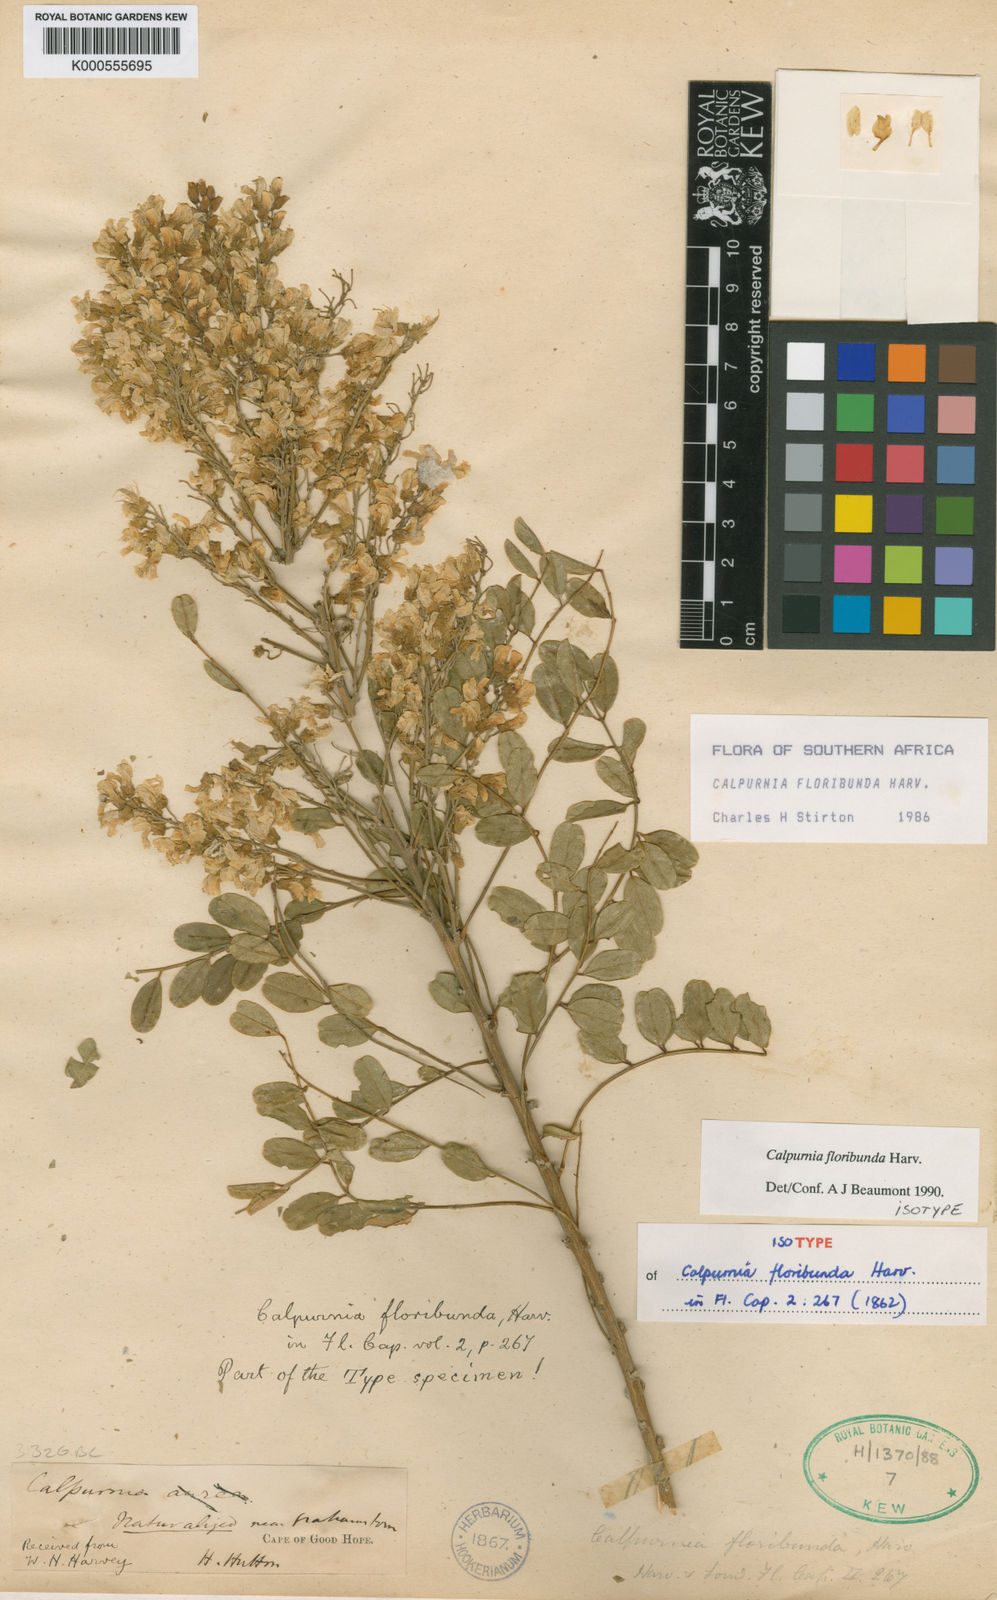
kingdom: Plantae
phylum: Tracheophyta
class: Magnoliopsida
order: Fabales
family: Fabaceae
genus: Calpurnia
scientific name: Calpurnia glabrata
